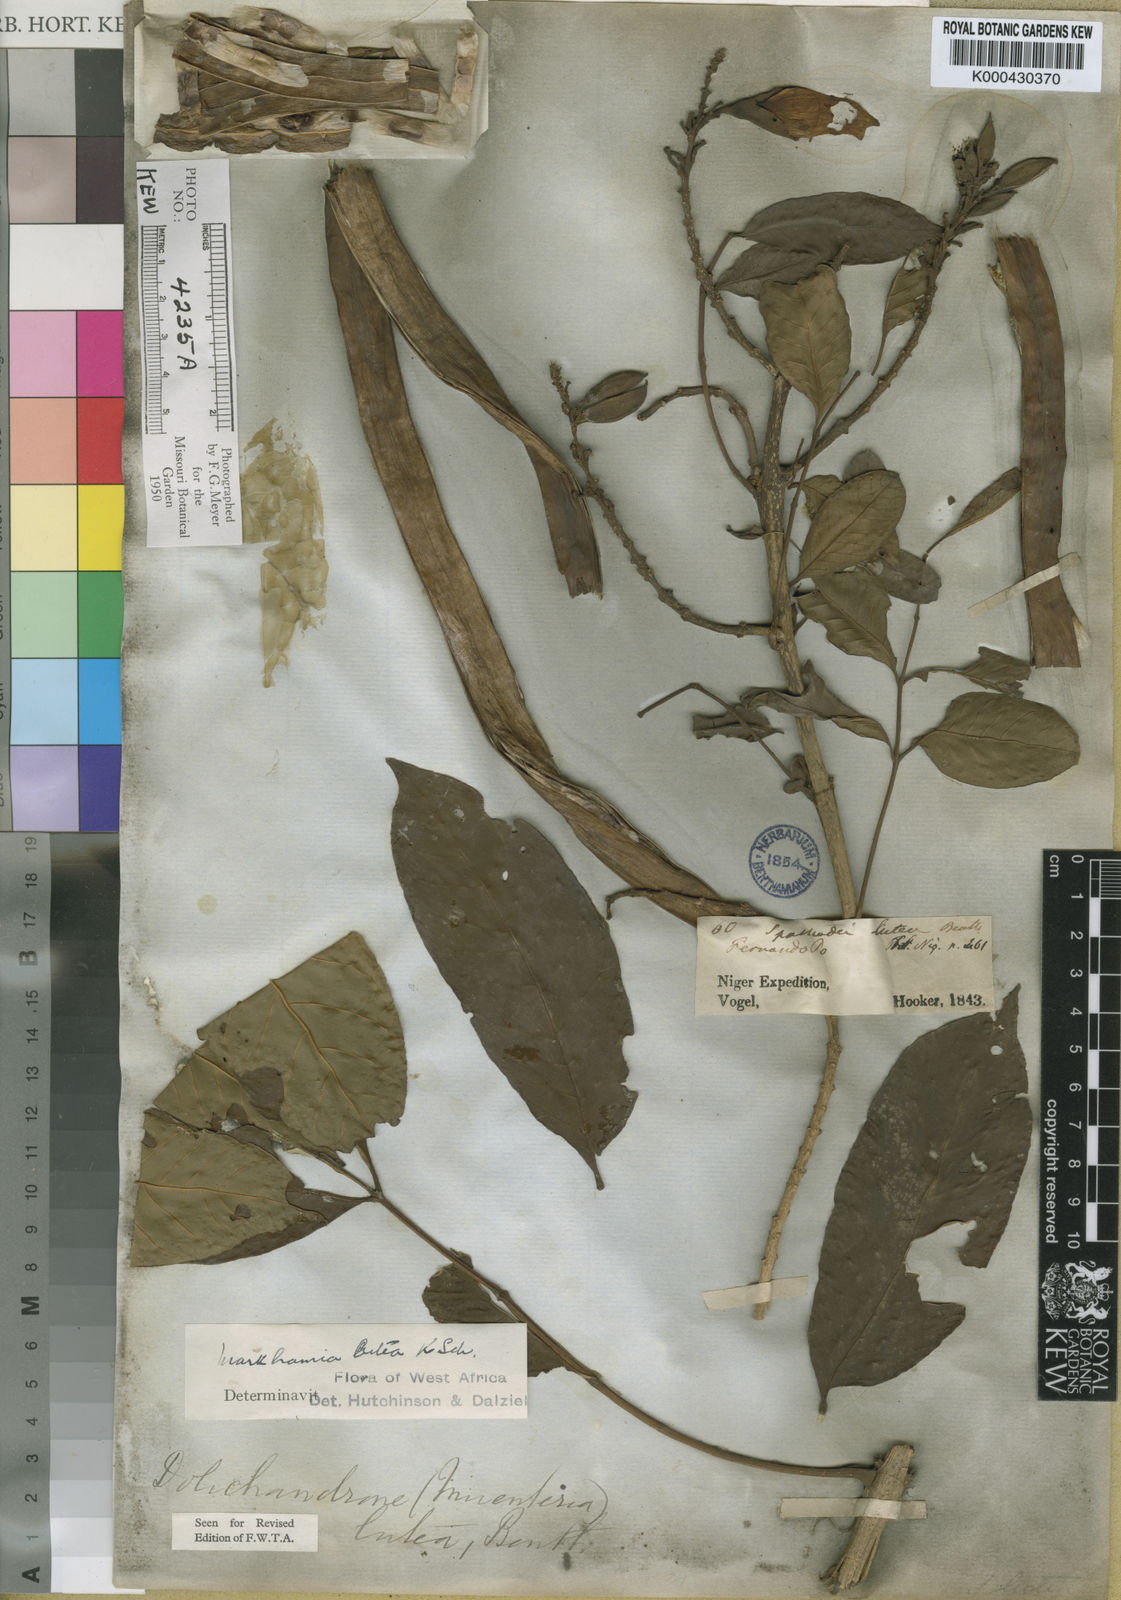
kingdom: Plantae
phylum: Tracheophyta
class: Magnoliopsida
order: Lamiales
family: Bignoniaceae
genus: Markhamia
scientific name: Markhamia lutea
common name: Siala
